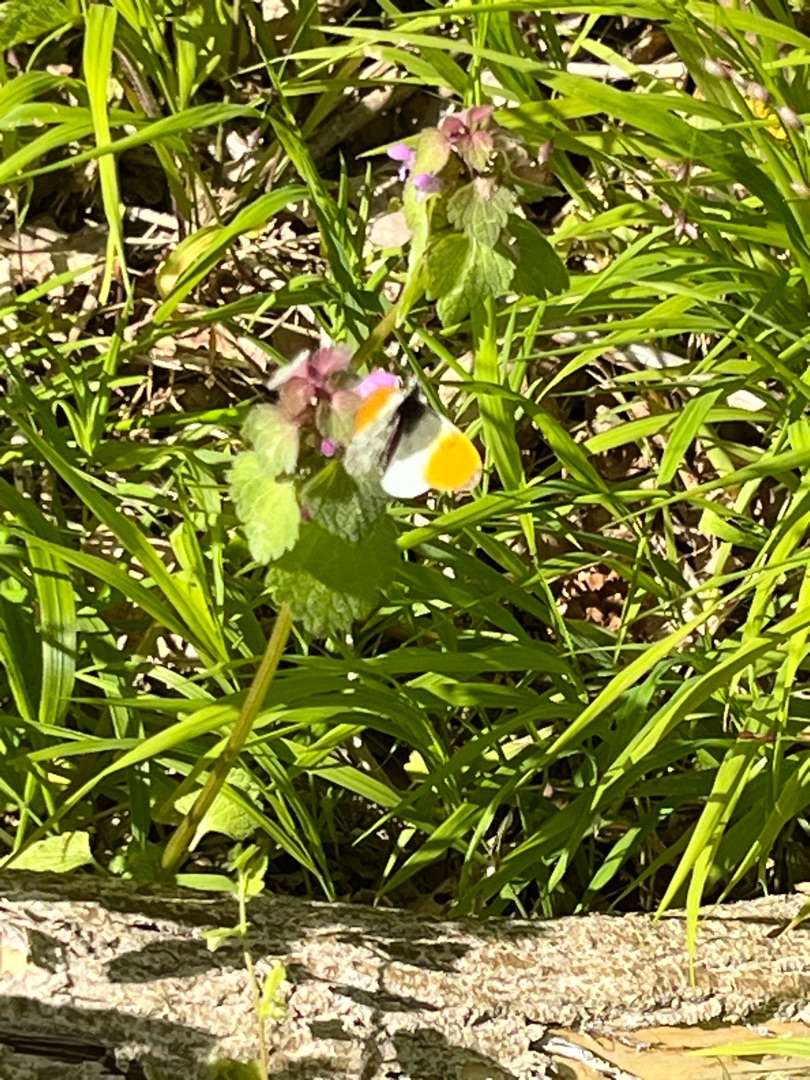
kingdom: Animalia
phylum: Arthropoda
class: Insecta
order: Lepidoptera
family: Pieridae
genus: Anthocharis
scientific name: Anthocharis cardamines
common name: Aurora
